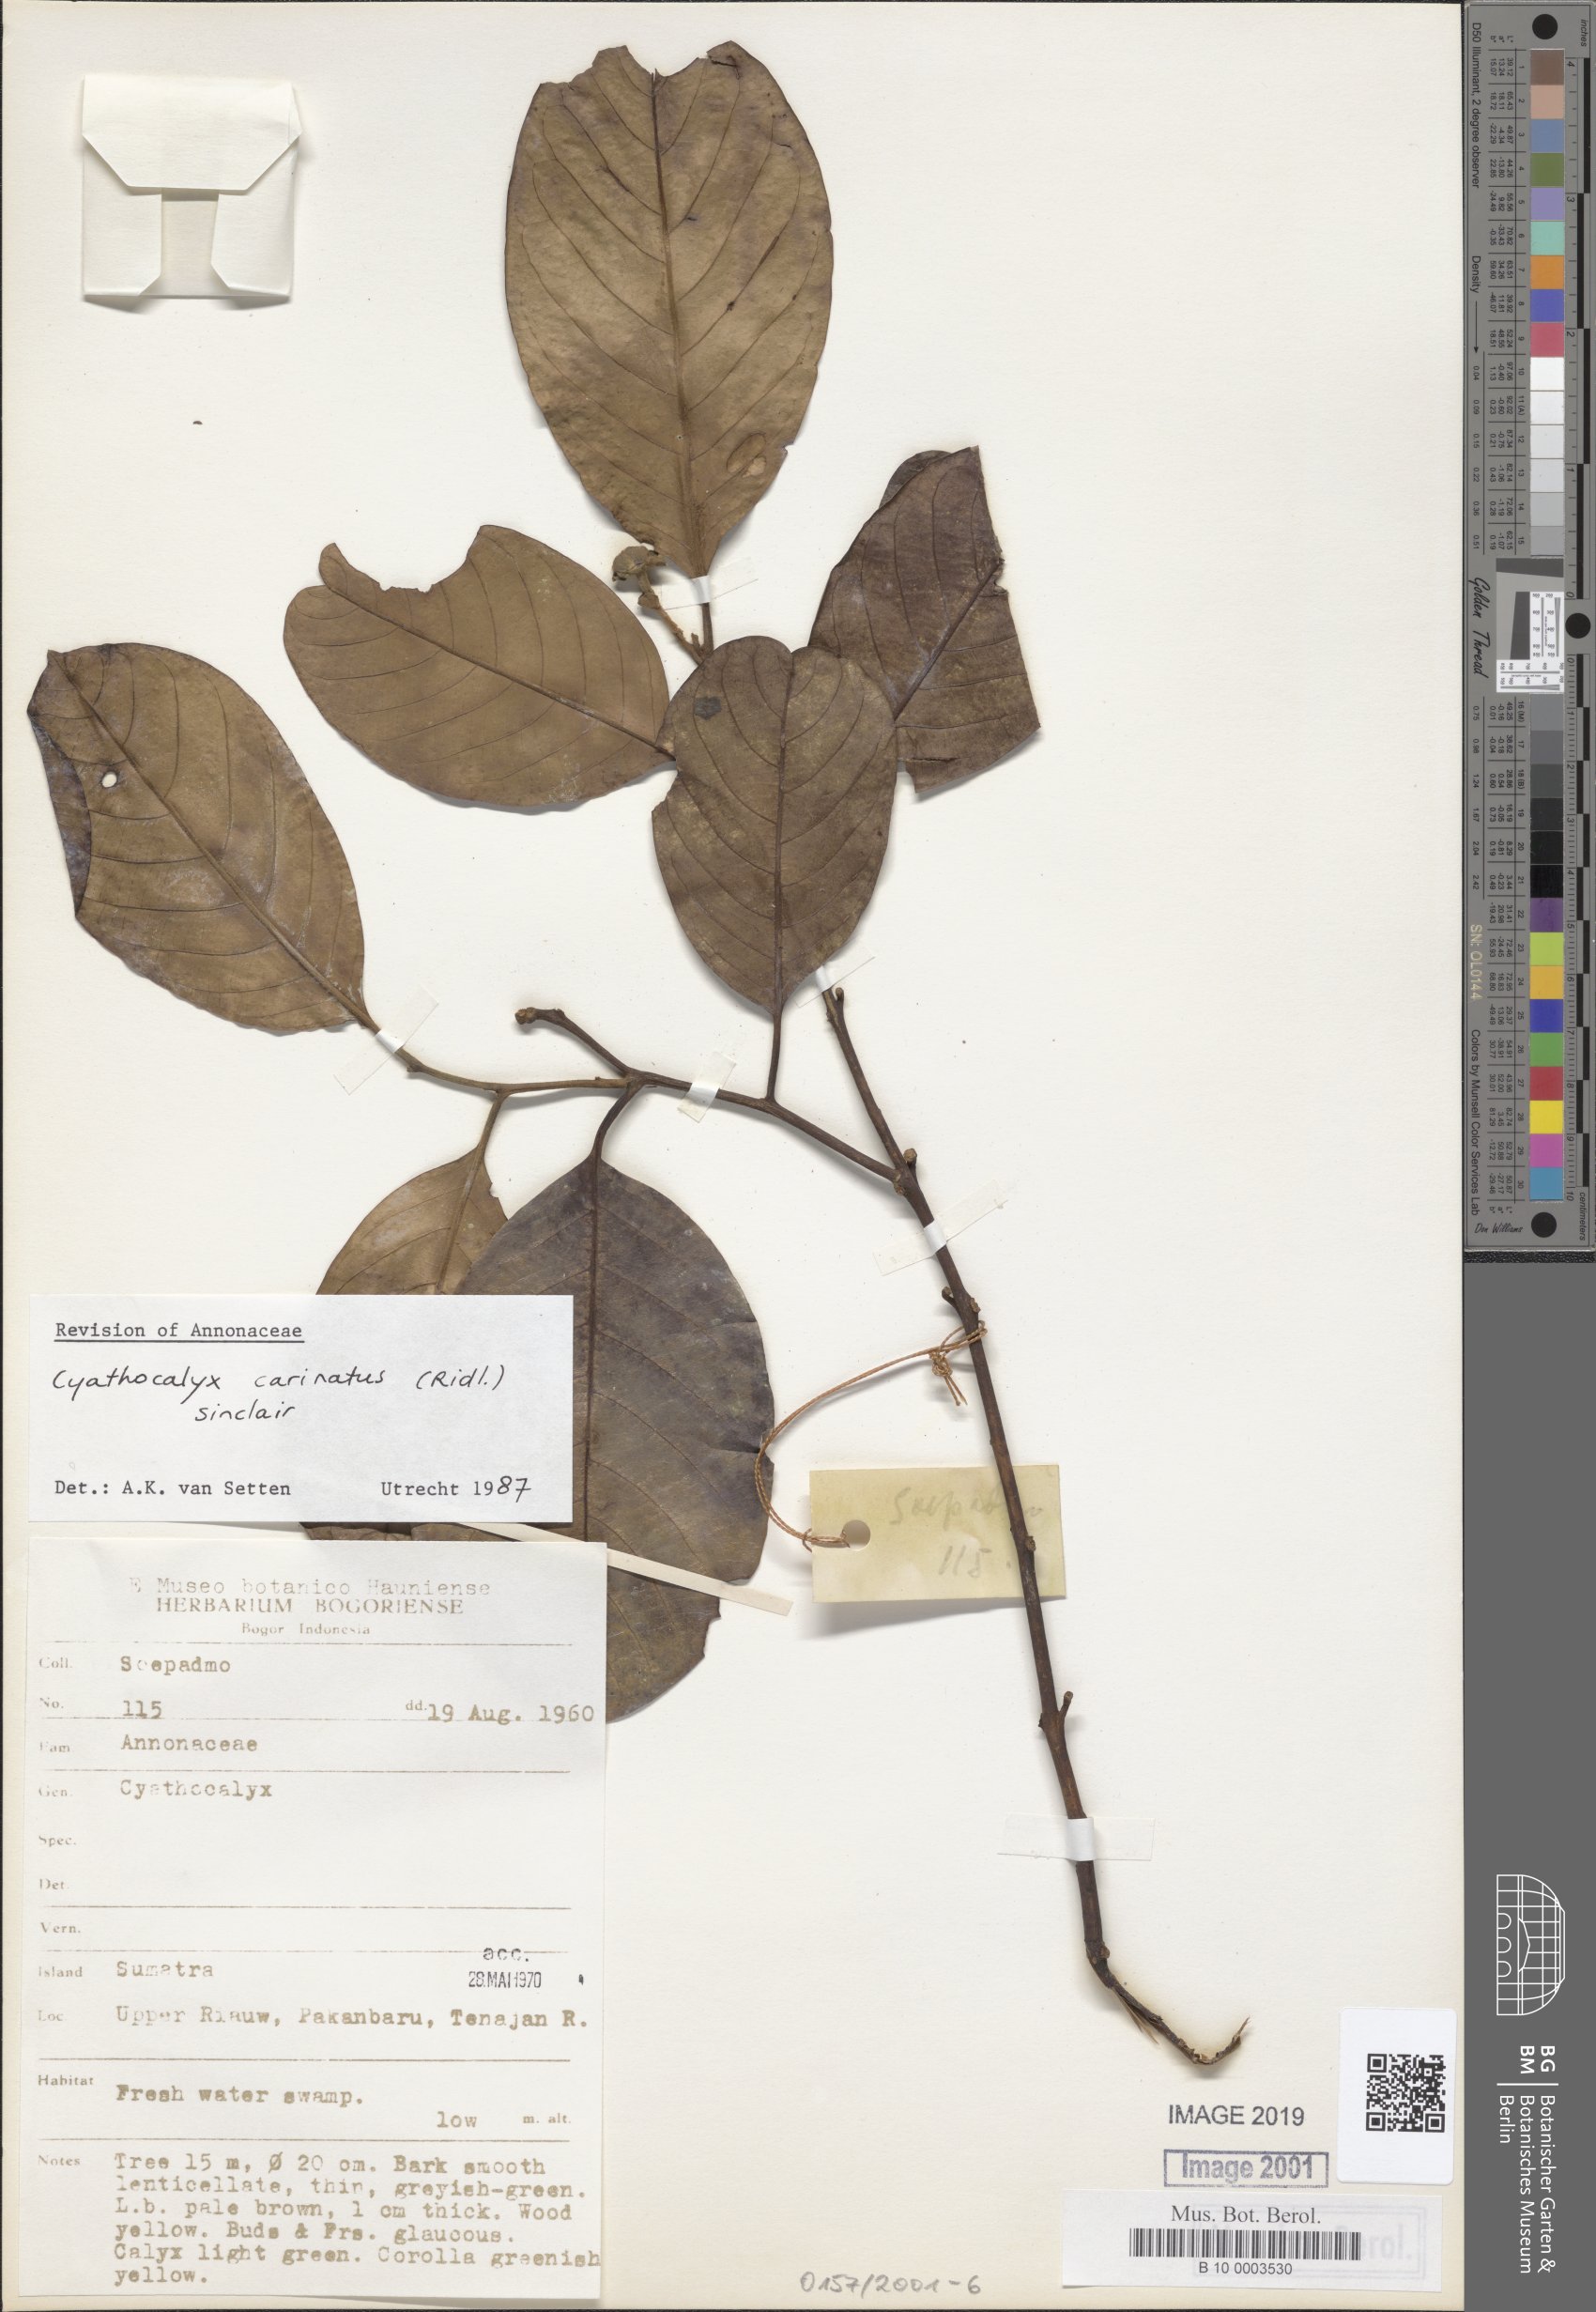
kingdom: Plantae
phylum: Tracheophyta
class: Magnoliopsida
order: Magnoliales
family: Annonaceae
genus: Drepananthus
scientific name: Drepananthus carinatus
